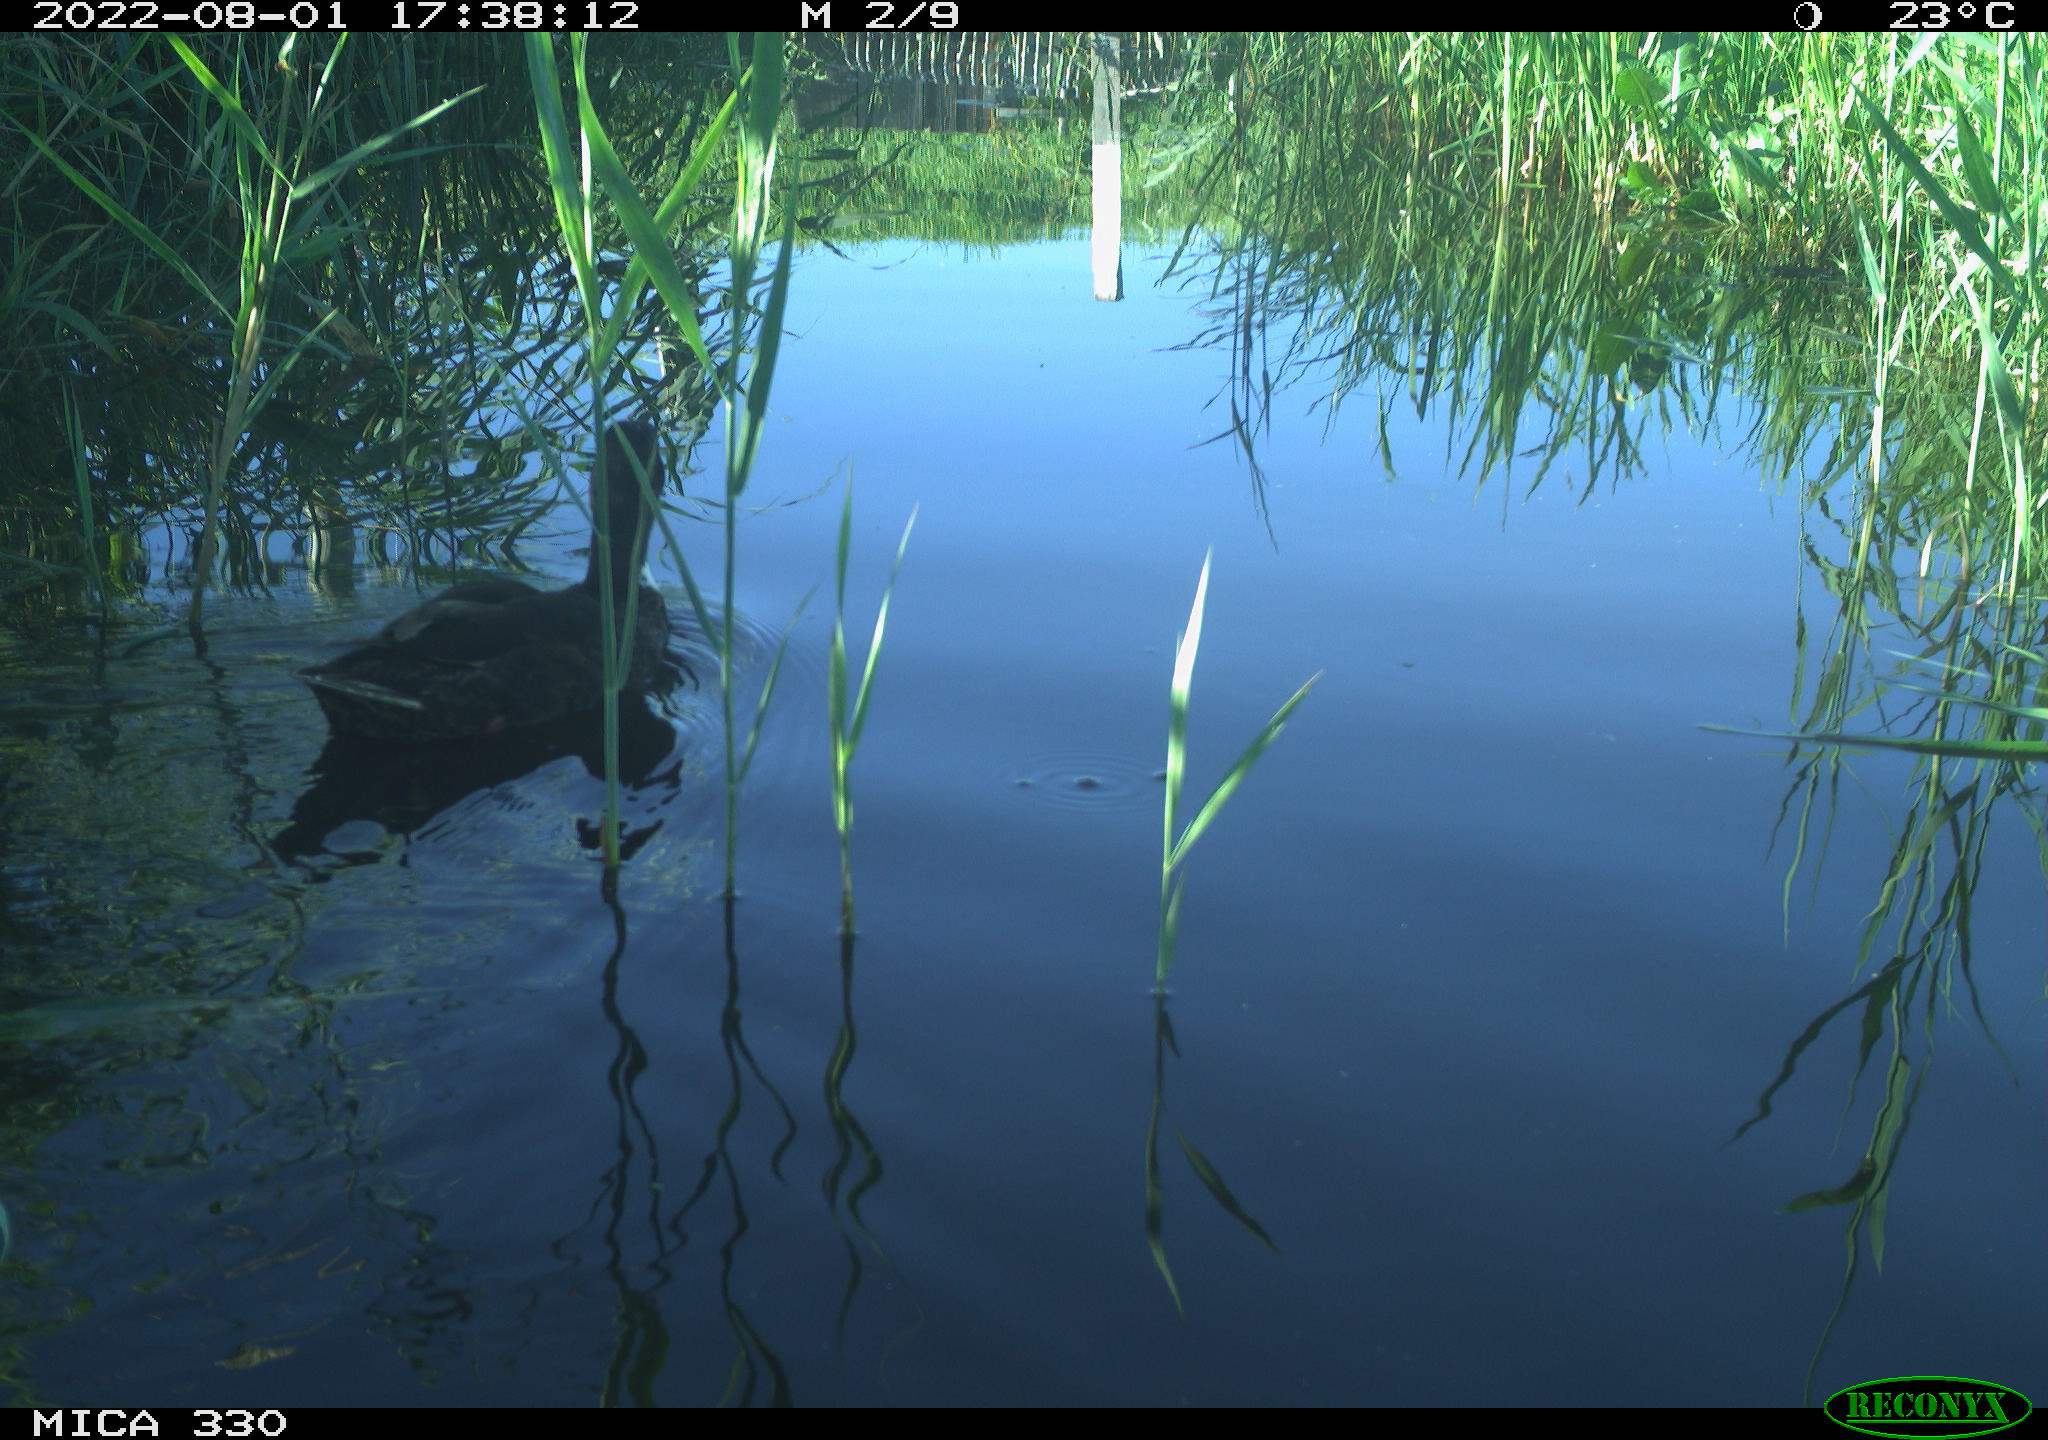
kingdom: Animalia
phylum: Chordata
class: Aves
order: Gruiformes
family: Rallidae
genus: Fulica
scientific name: Fulica atra
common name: Eurasian coot
